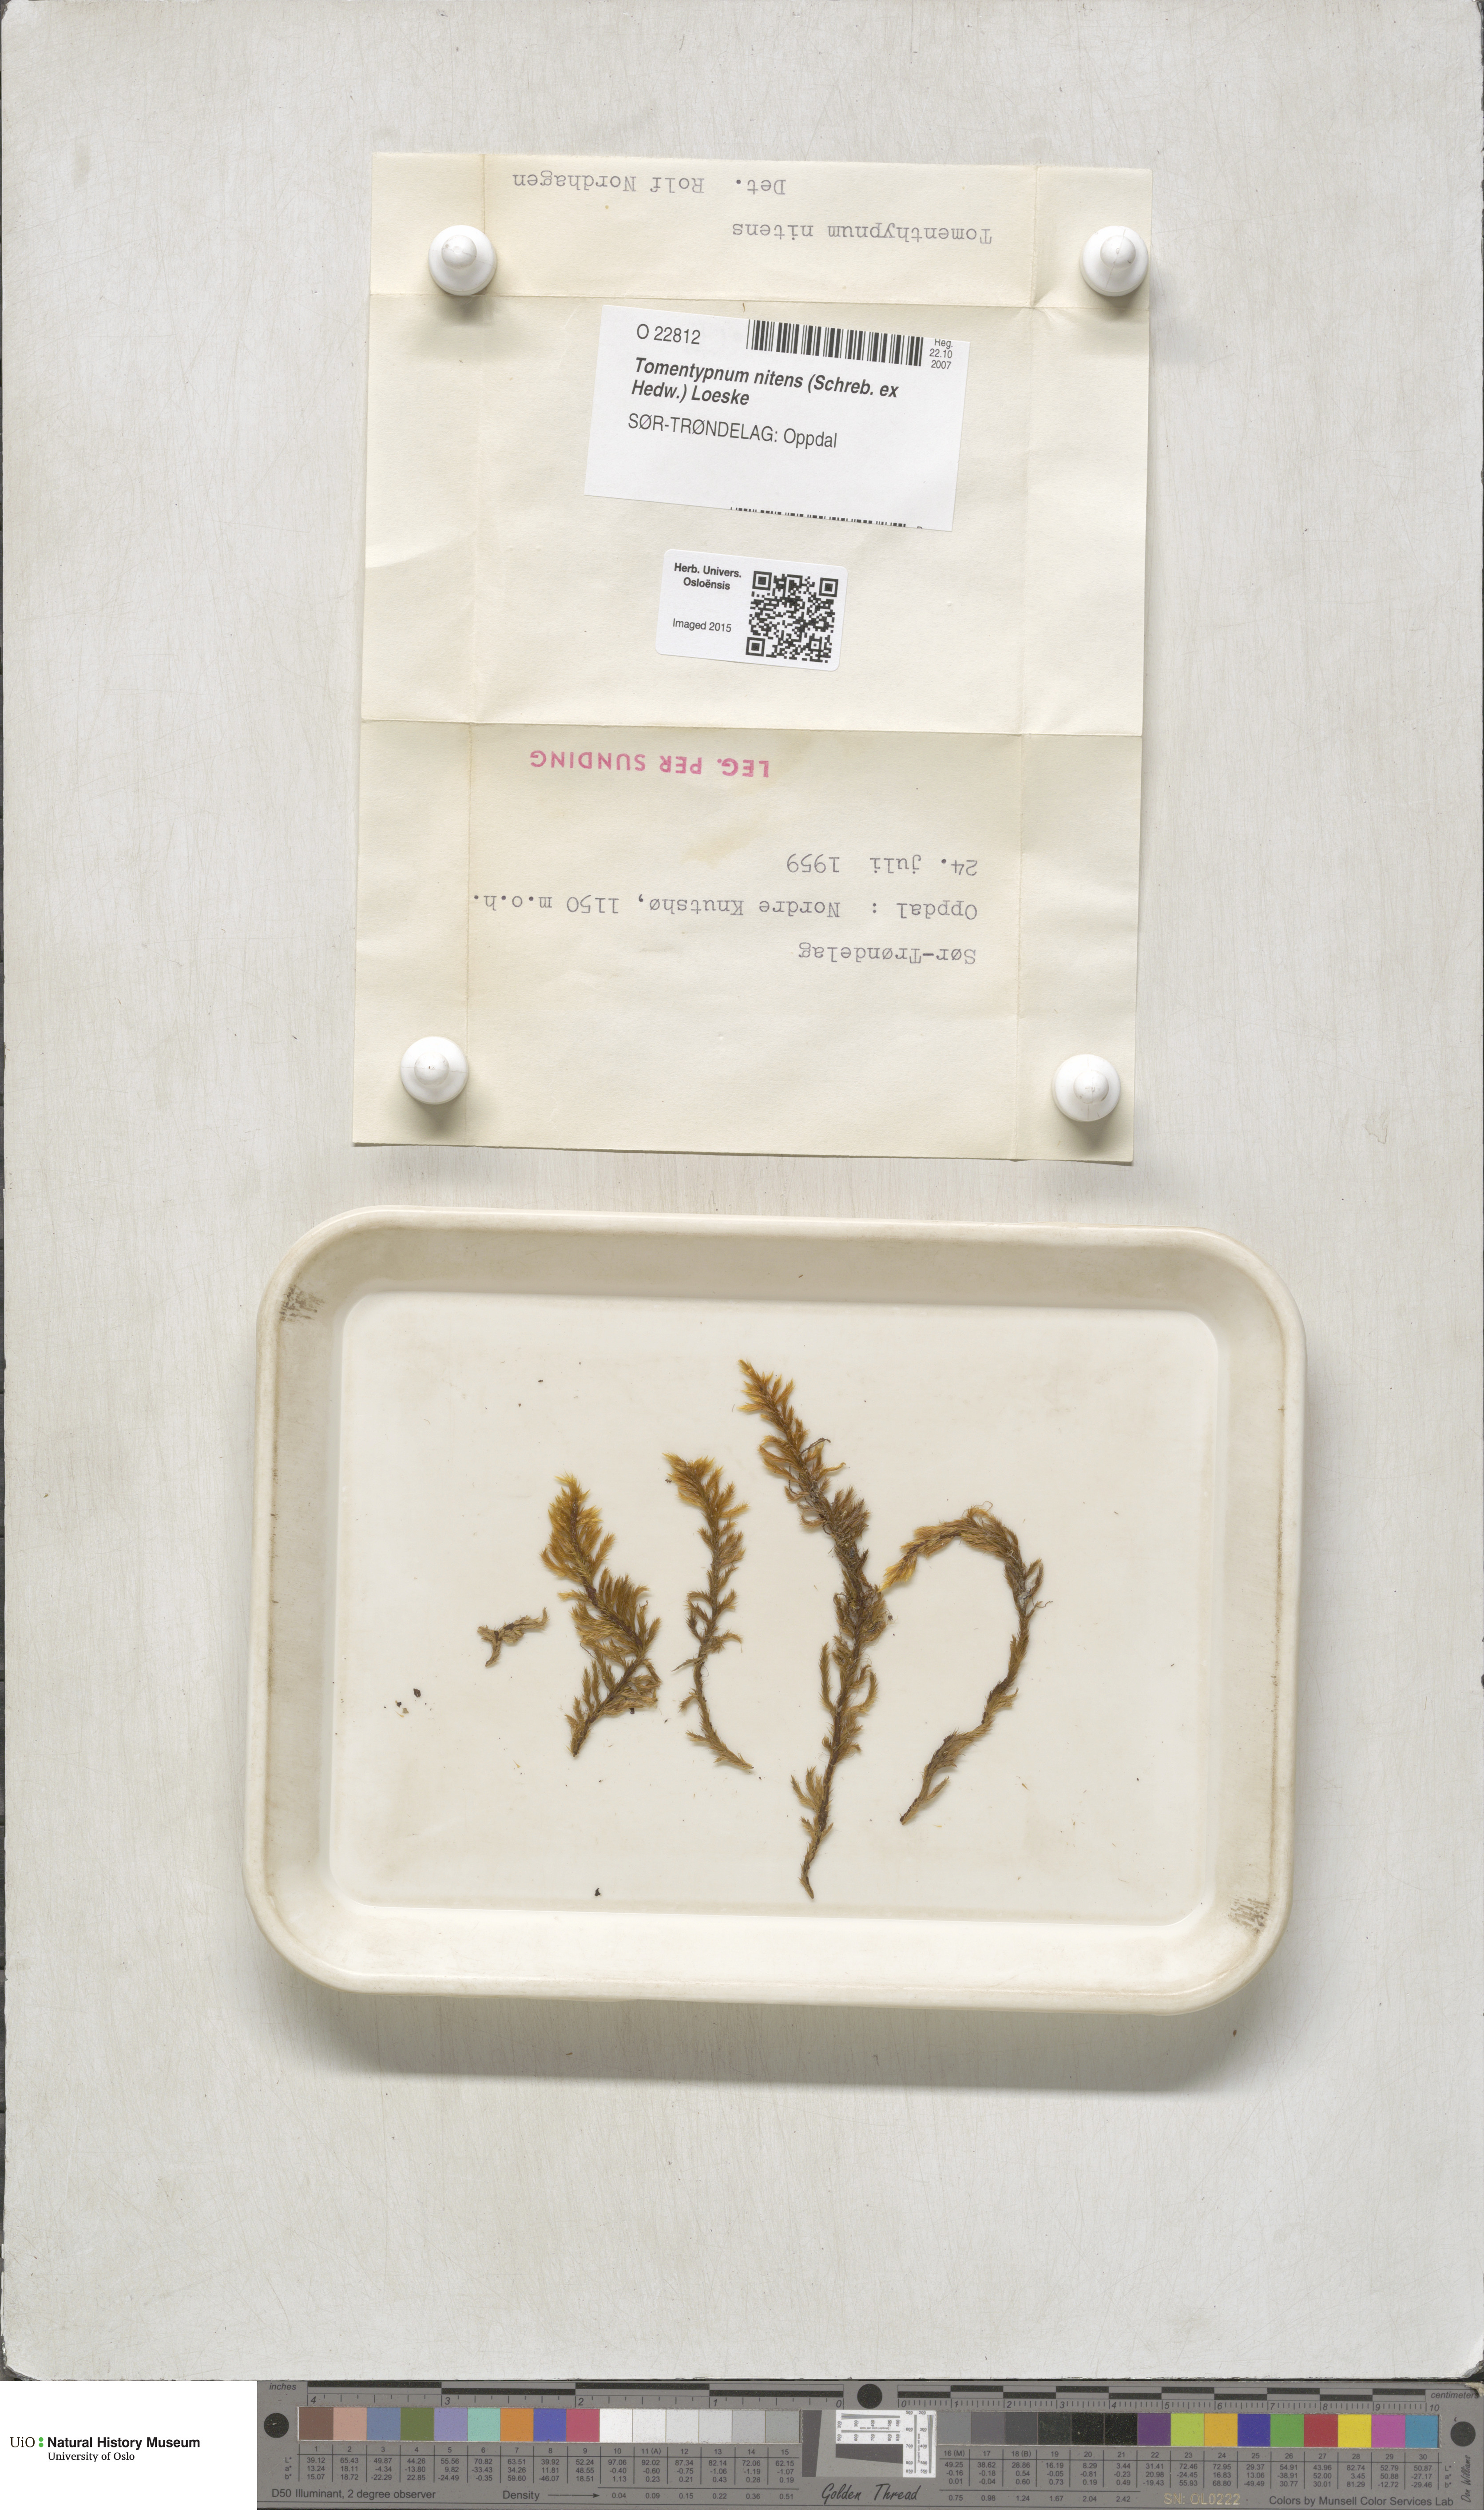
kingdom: Plantae
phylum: Bryophyta
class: Bryopsida
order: Hypnales
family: Amblystegiaceae
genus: Tomentypnum
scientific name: Tomentypnum nitens
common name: Golden fuzzy fen moss
